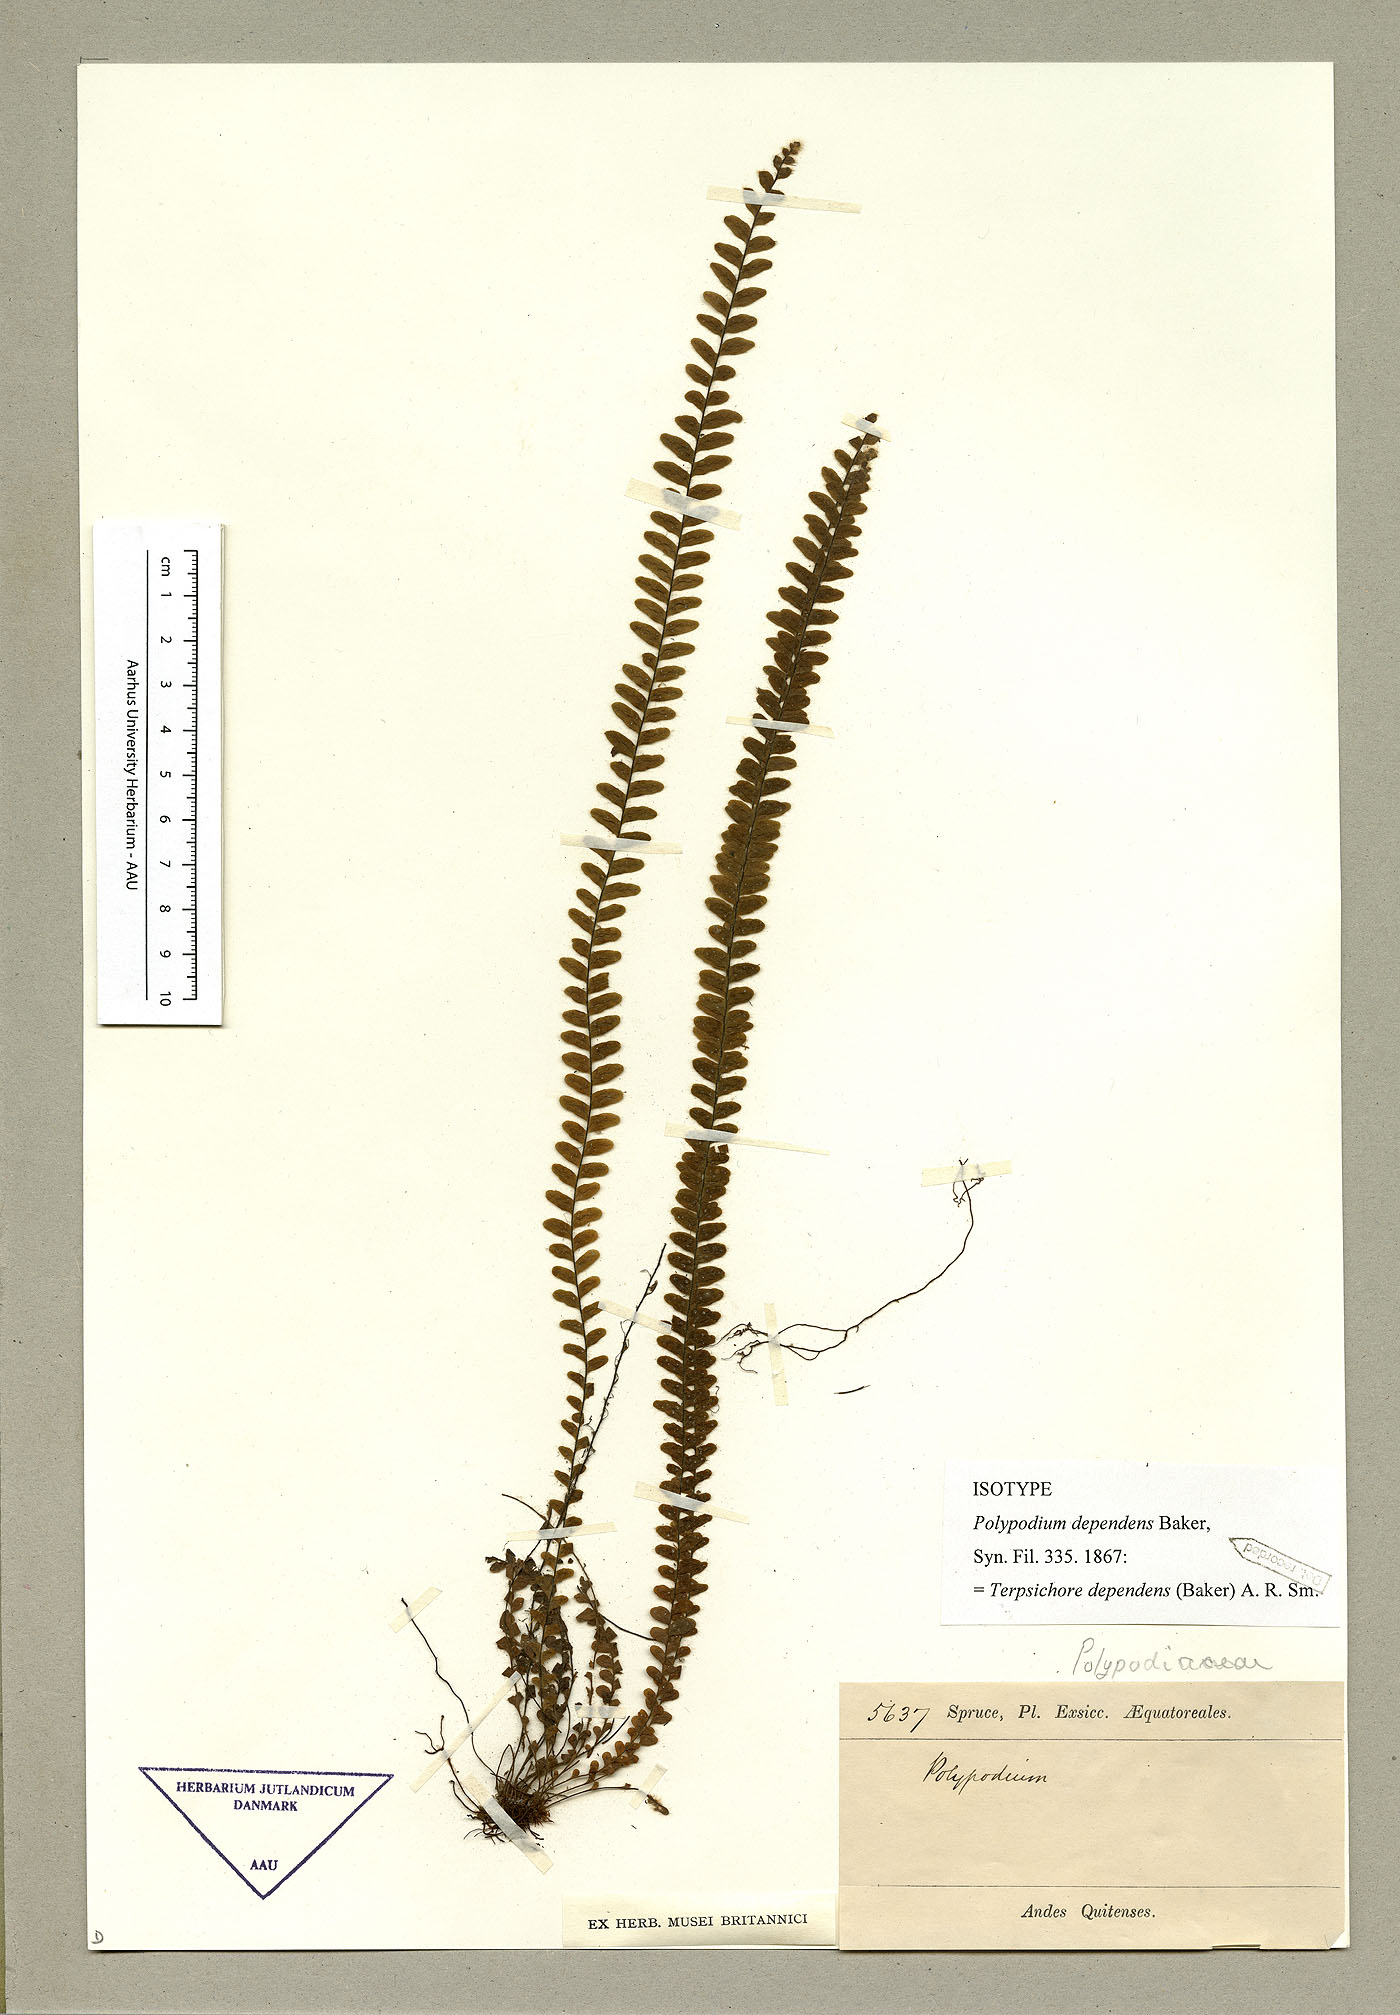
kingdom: Plantae
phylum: Tracheophyta
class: Polypodiopsida
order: Polypodiales
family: Polypodiaceae
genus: Alansmia
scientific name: Alansmia dependens
